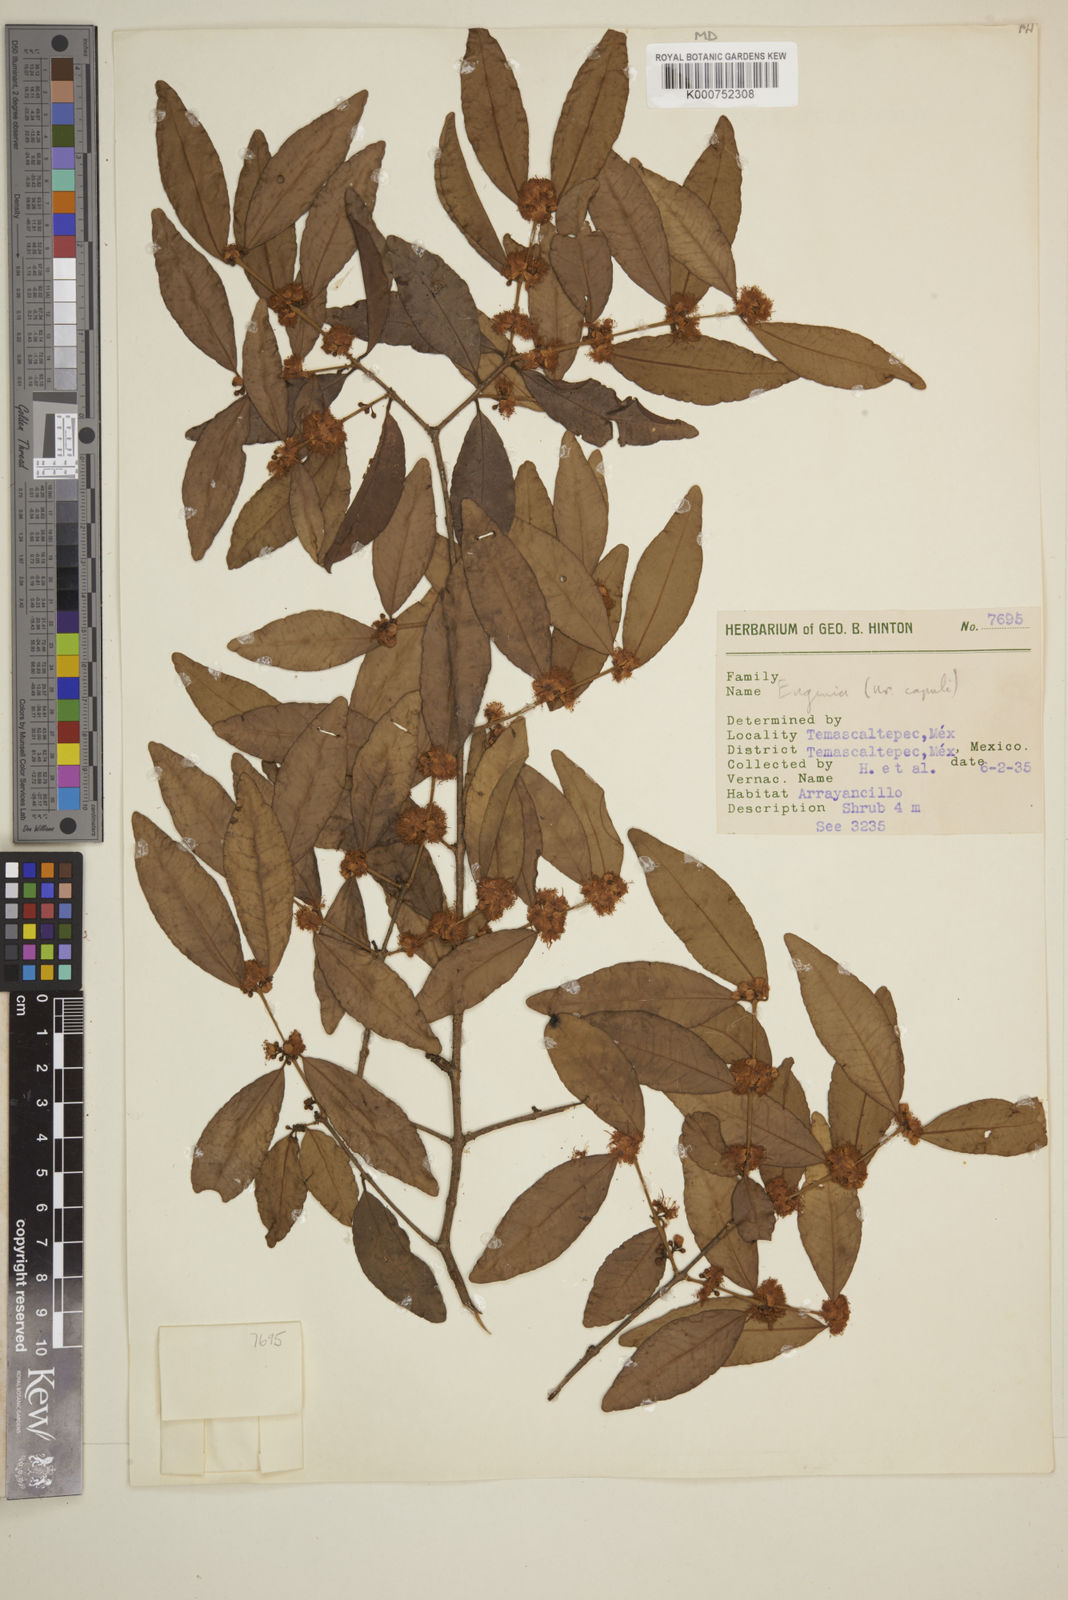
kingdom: Plantae
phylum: Tracheophyta
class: Magnoliopsida
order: Myrtales
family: Myrtaceae
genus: Eugenia
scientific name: Eugenia capuli
